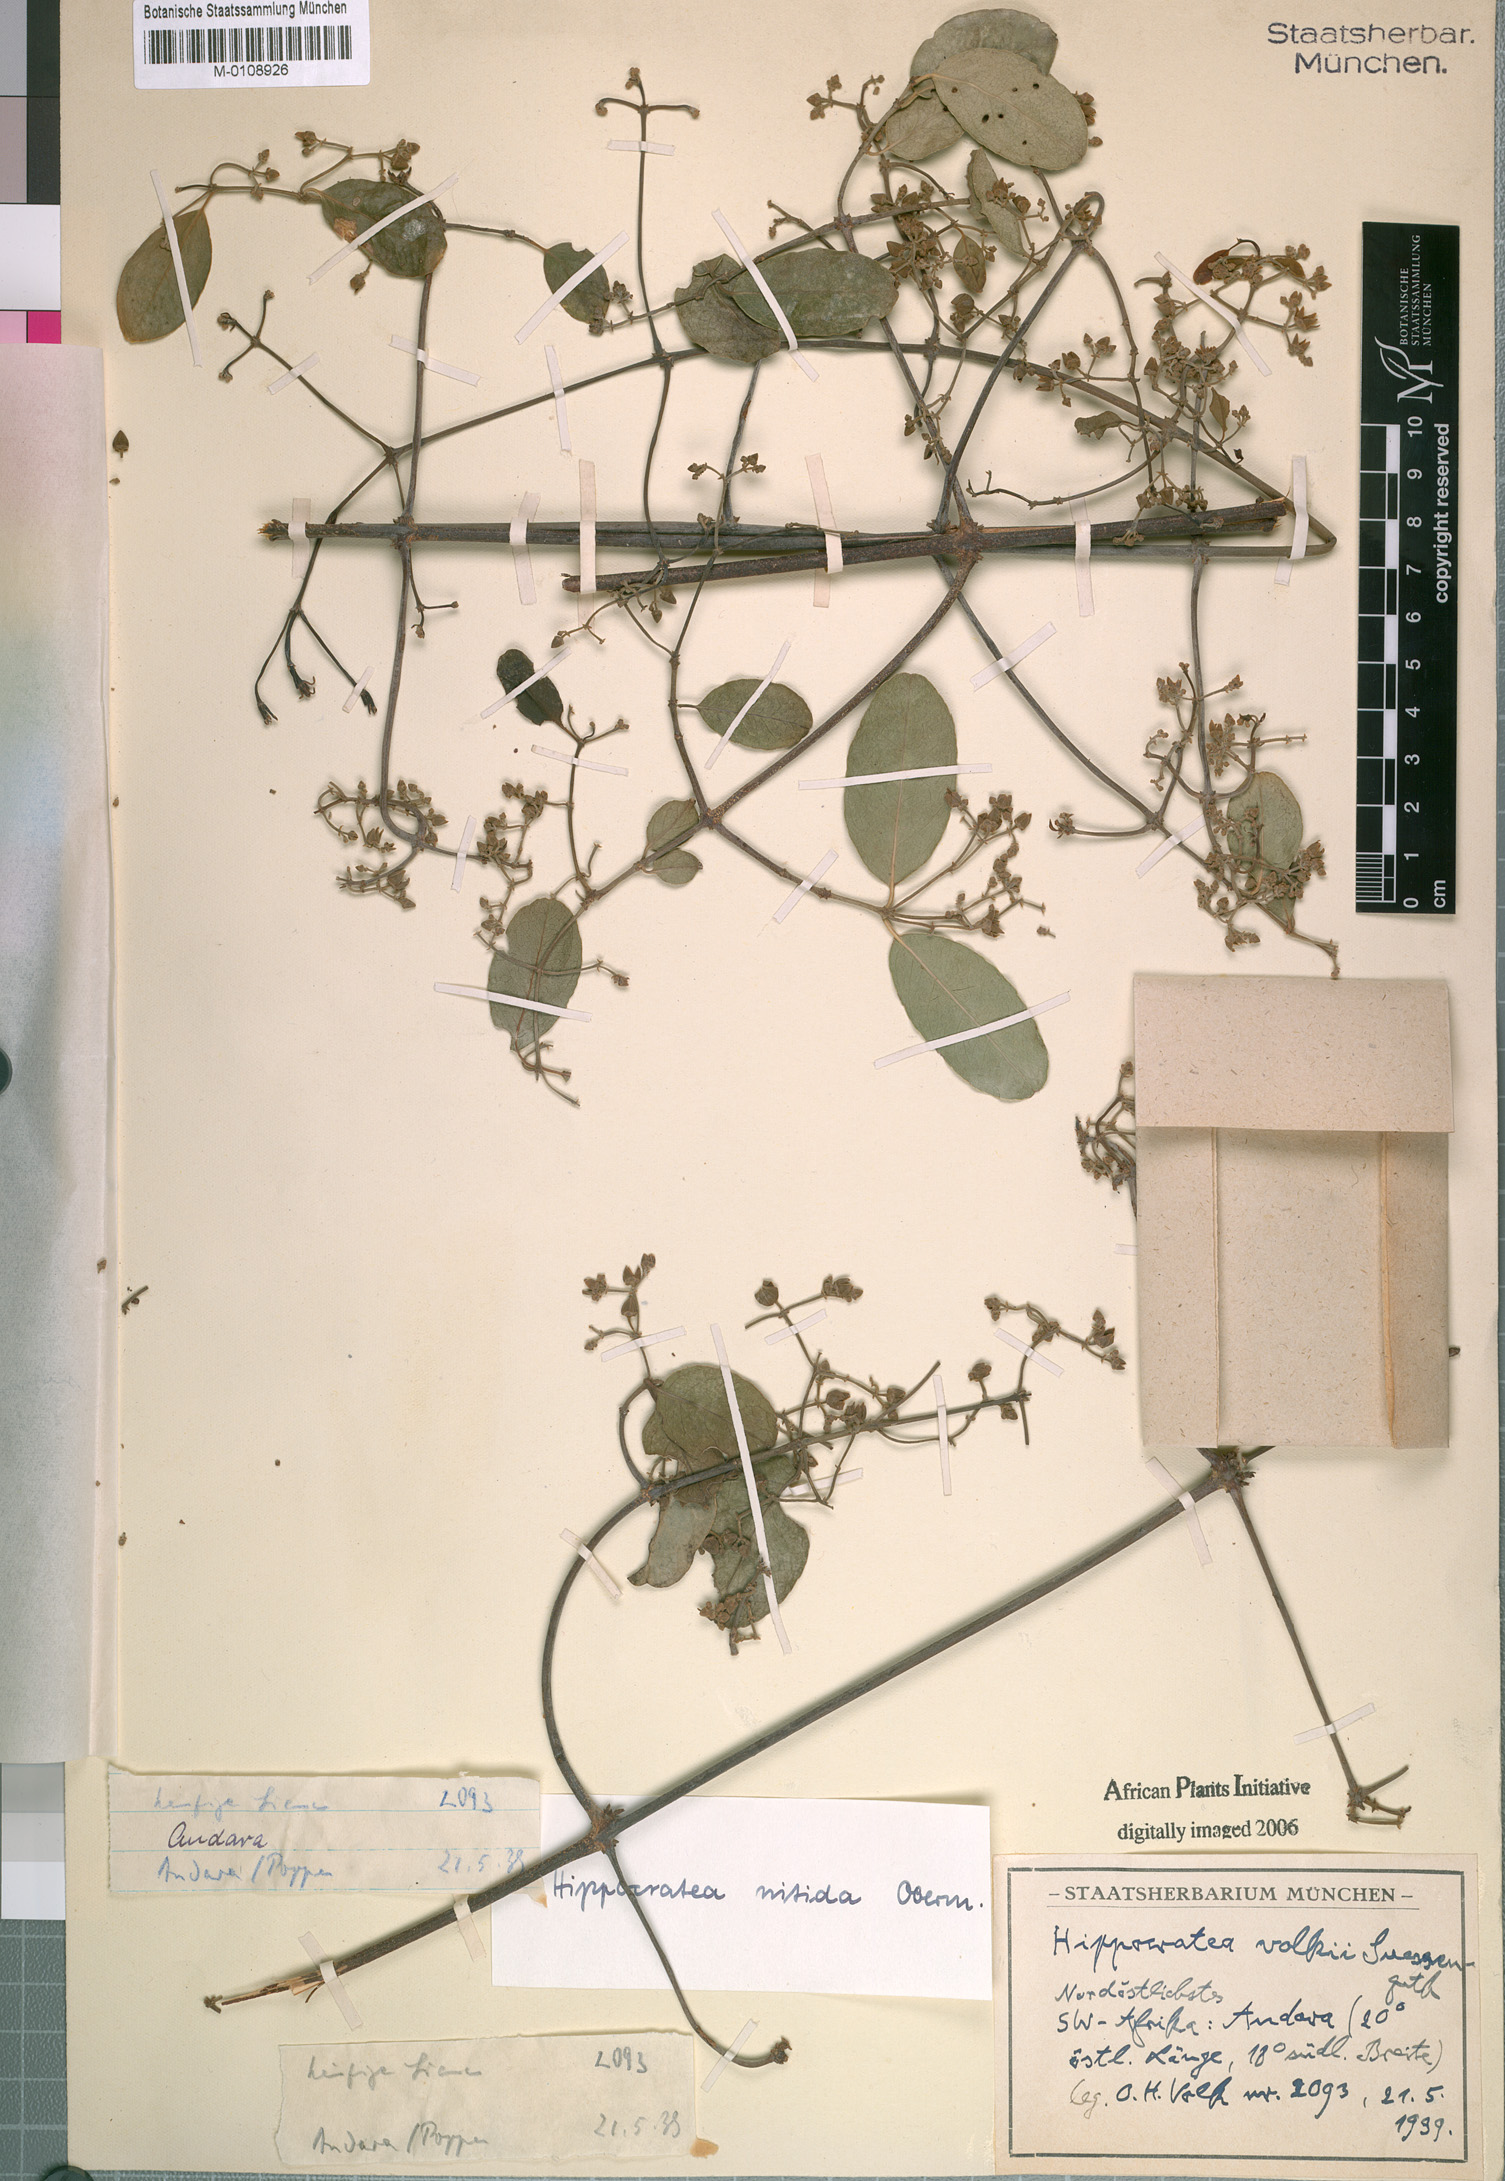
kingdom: Plantae
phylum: Tracheophyta
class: Magnoliopsida
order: Celastrales
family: Celastraceae
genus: Loeseneriella
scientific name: Loeseneriella africana
